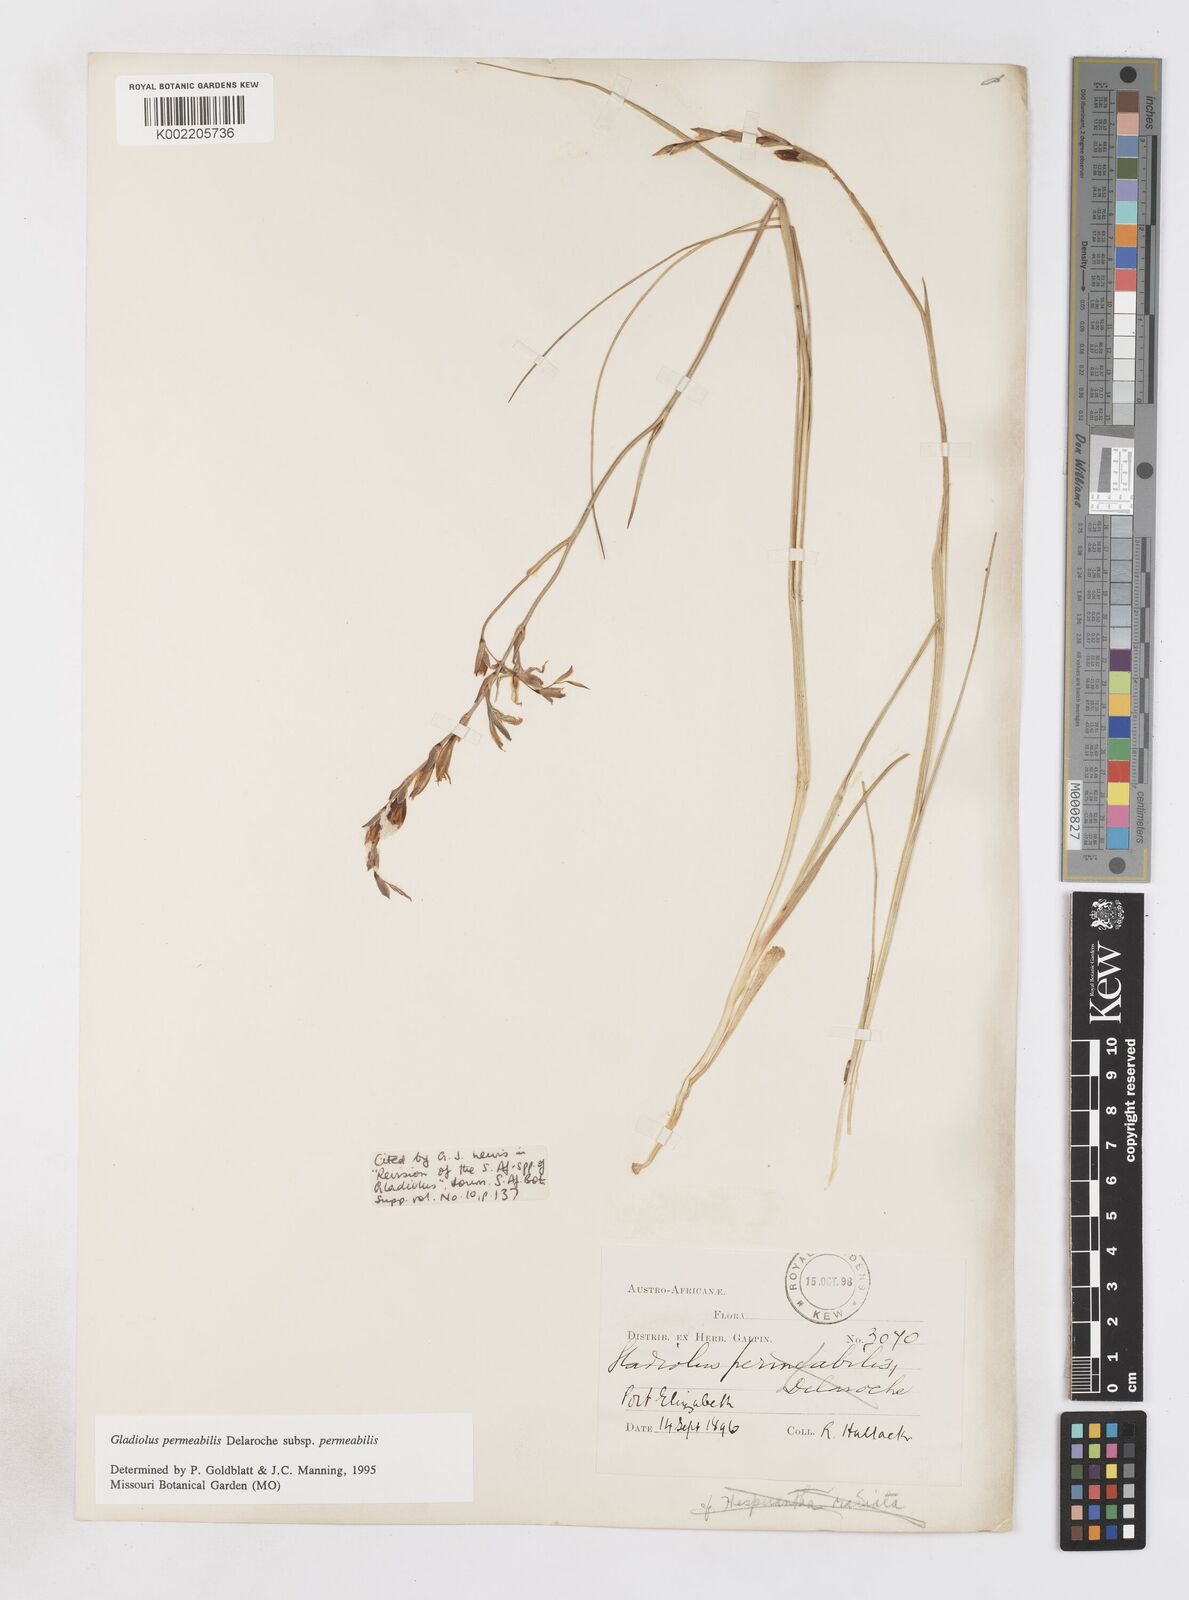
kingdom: Plantae
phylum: Tracheophyta
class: Liliopsida
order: Asparagales
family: Iridaceae
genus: Gladiolus
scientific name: Gladiolus permeabilis
